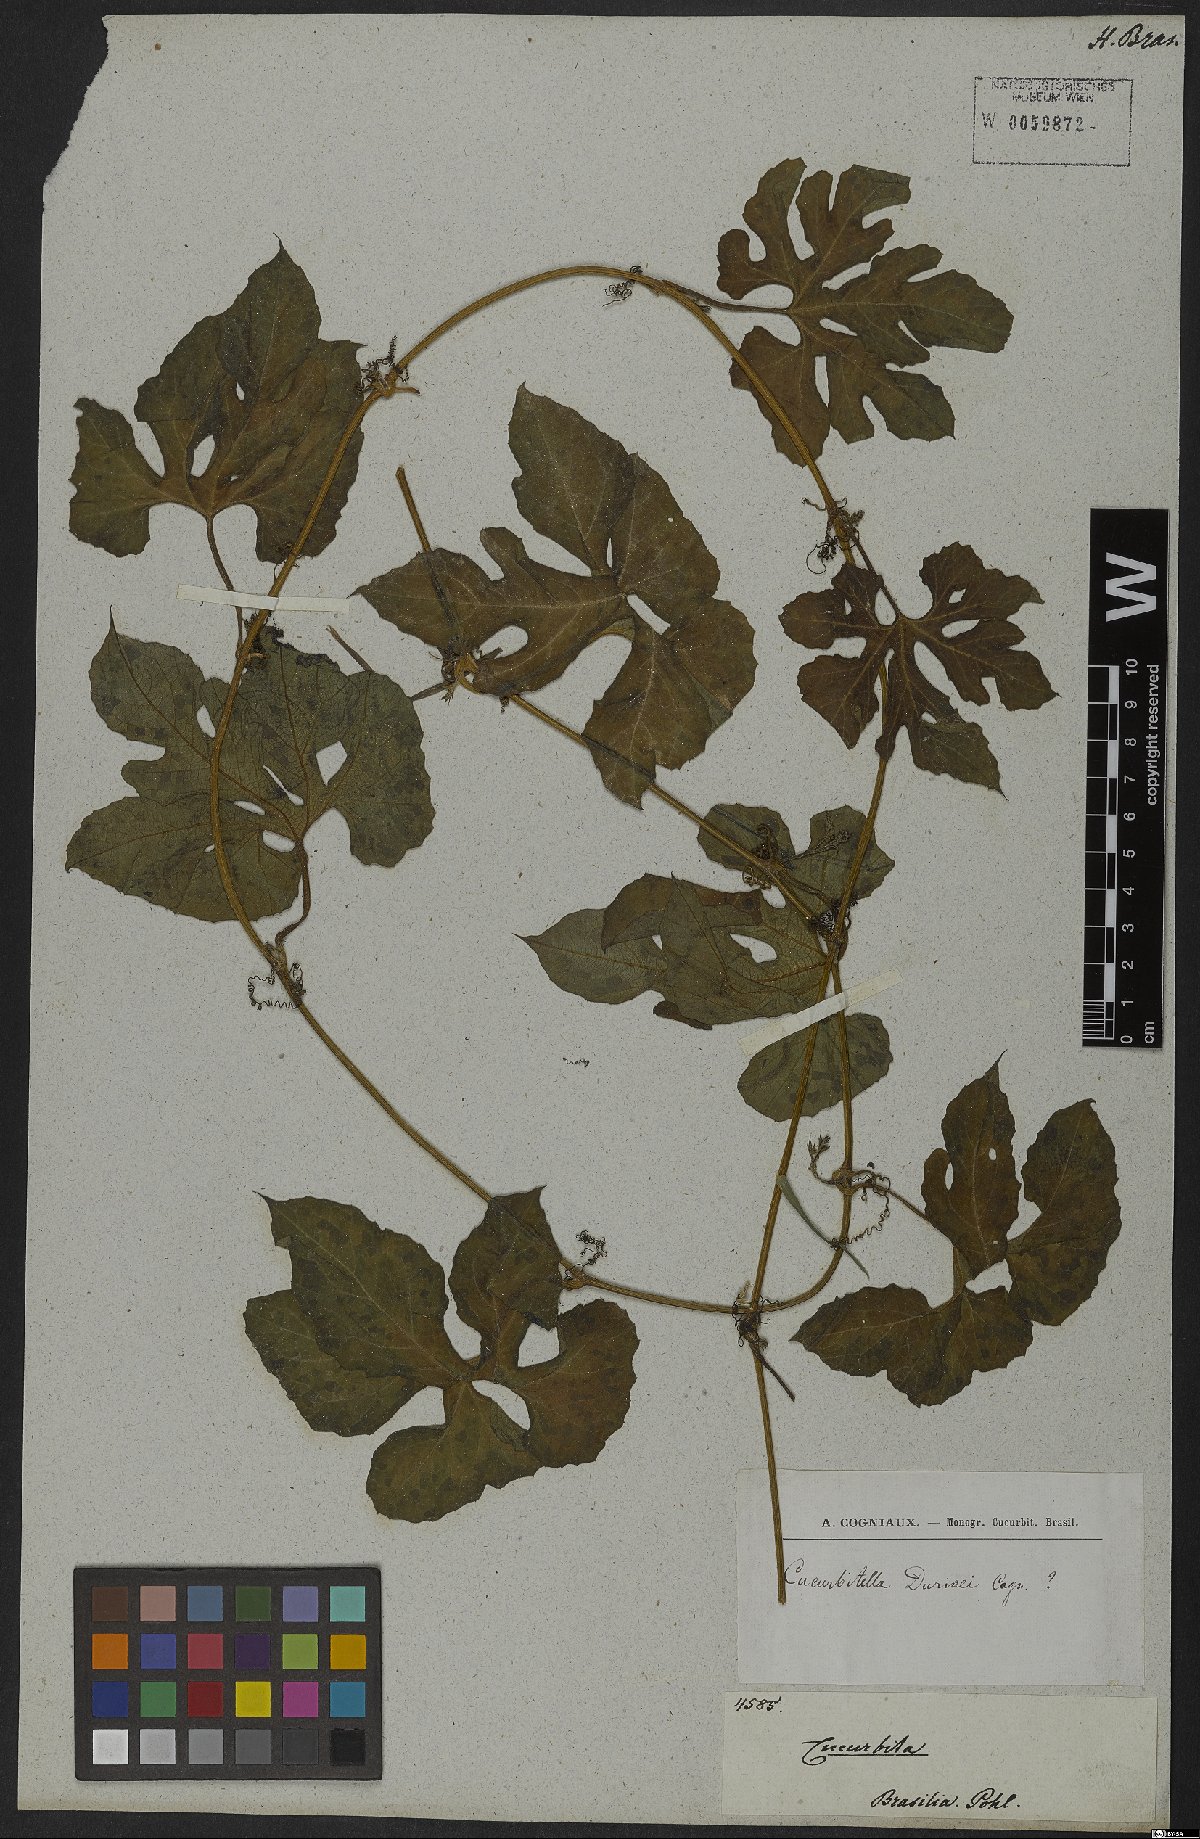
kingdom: Plantae
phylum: Tracheophyta
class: Magnoliopsida
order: Malpighiales
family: Erythroxylaceae
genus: Erythroxylum
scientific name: Erythroxylum pulchrum
